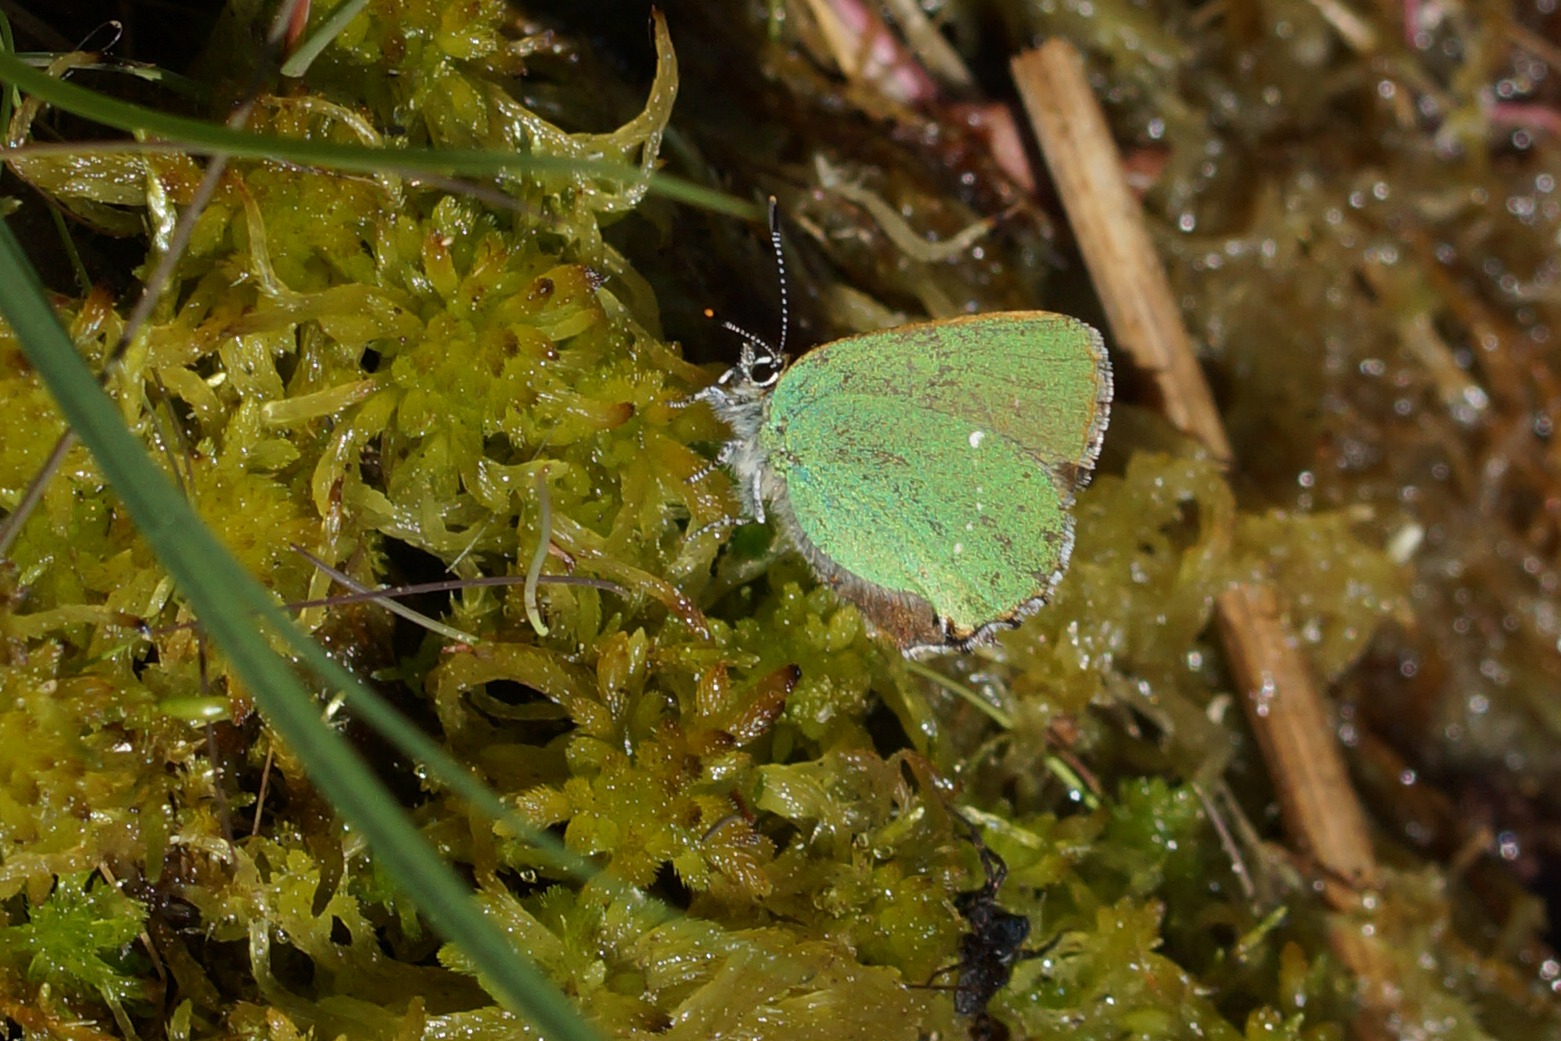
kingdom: Animalia
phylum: Arthropoda
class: Insecta
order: Lepidoptera
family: Lycaenidae
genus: Callophrys
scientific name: Callophrys rubi
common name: Grøn busksommerfugl
